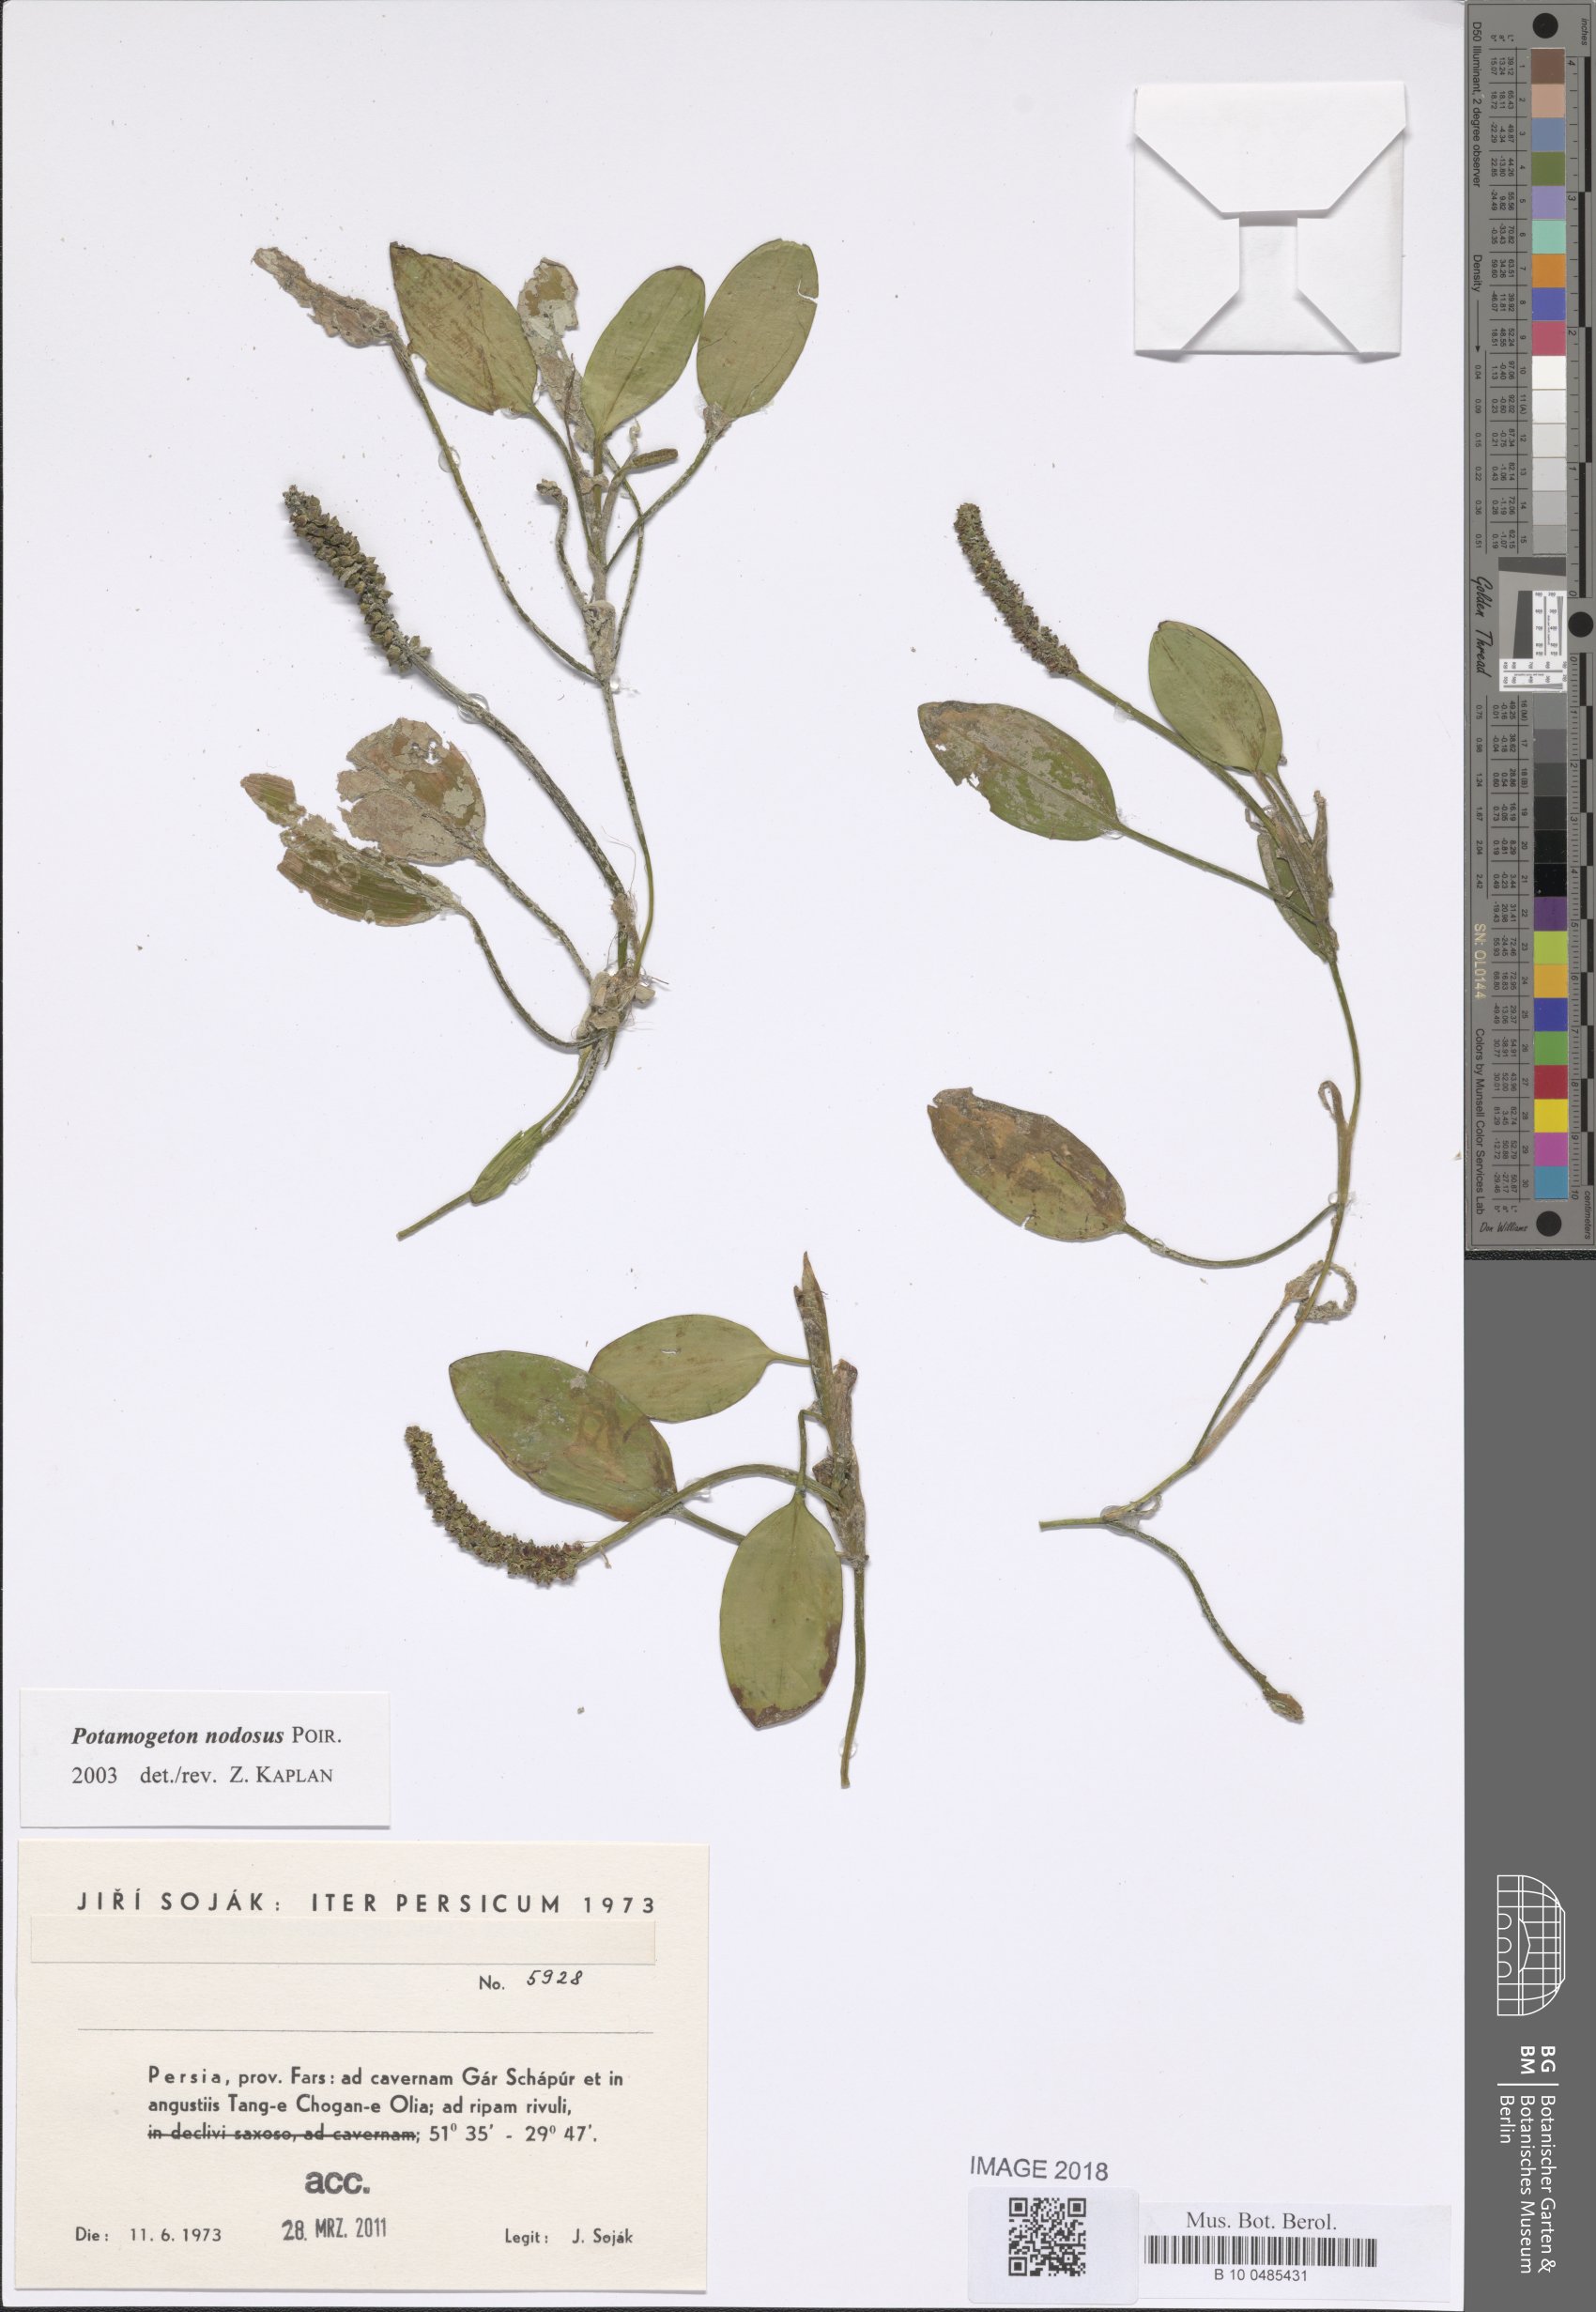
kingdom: Plantae
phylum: Tracheophyta
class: Liliopsida
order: Alismatales
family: Potamogetonaceae
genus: Potamogeton
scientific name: Potamogeton nodosus
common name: Loddon pondweed
